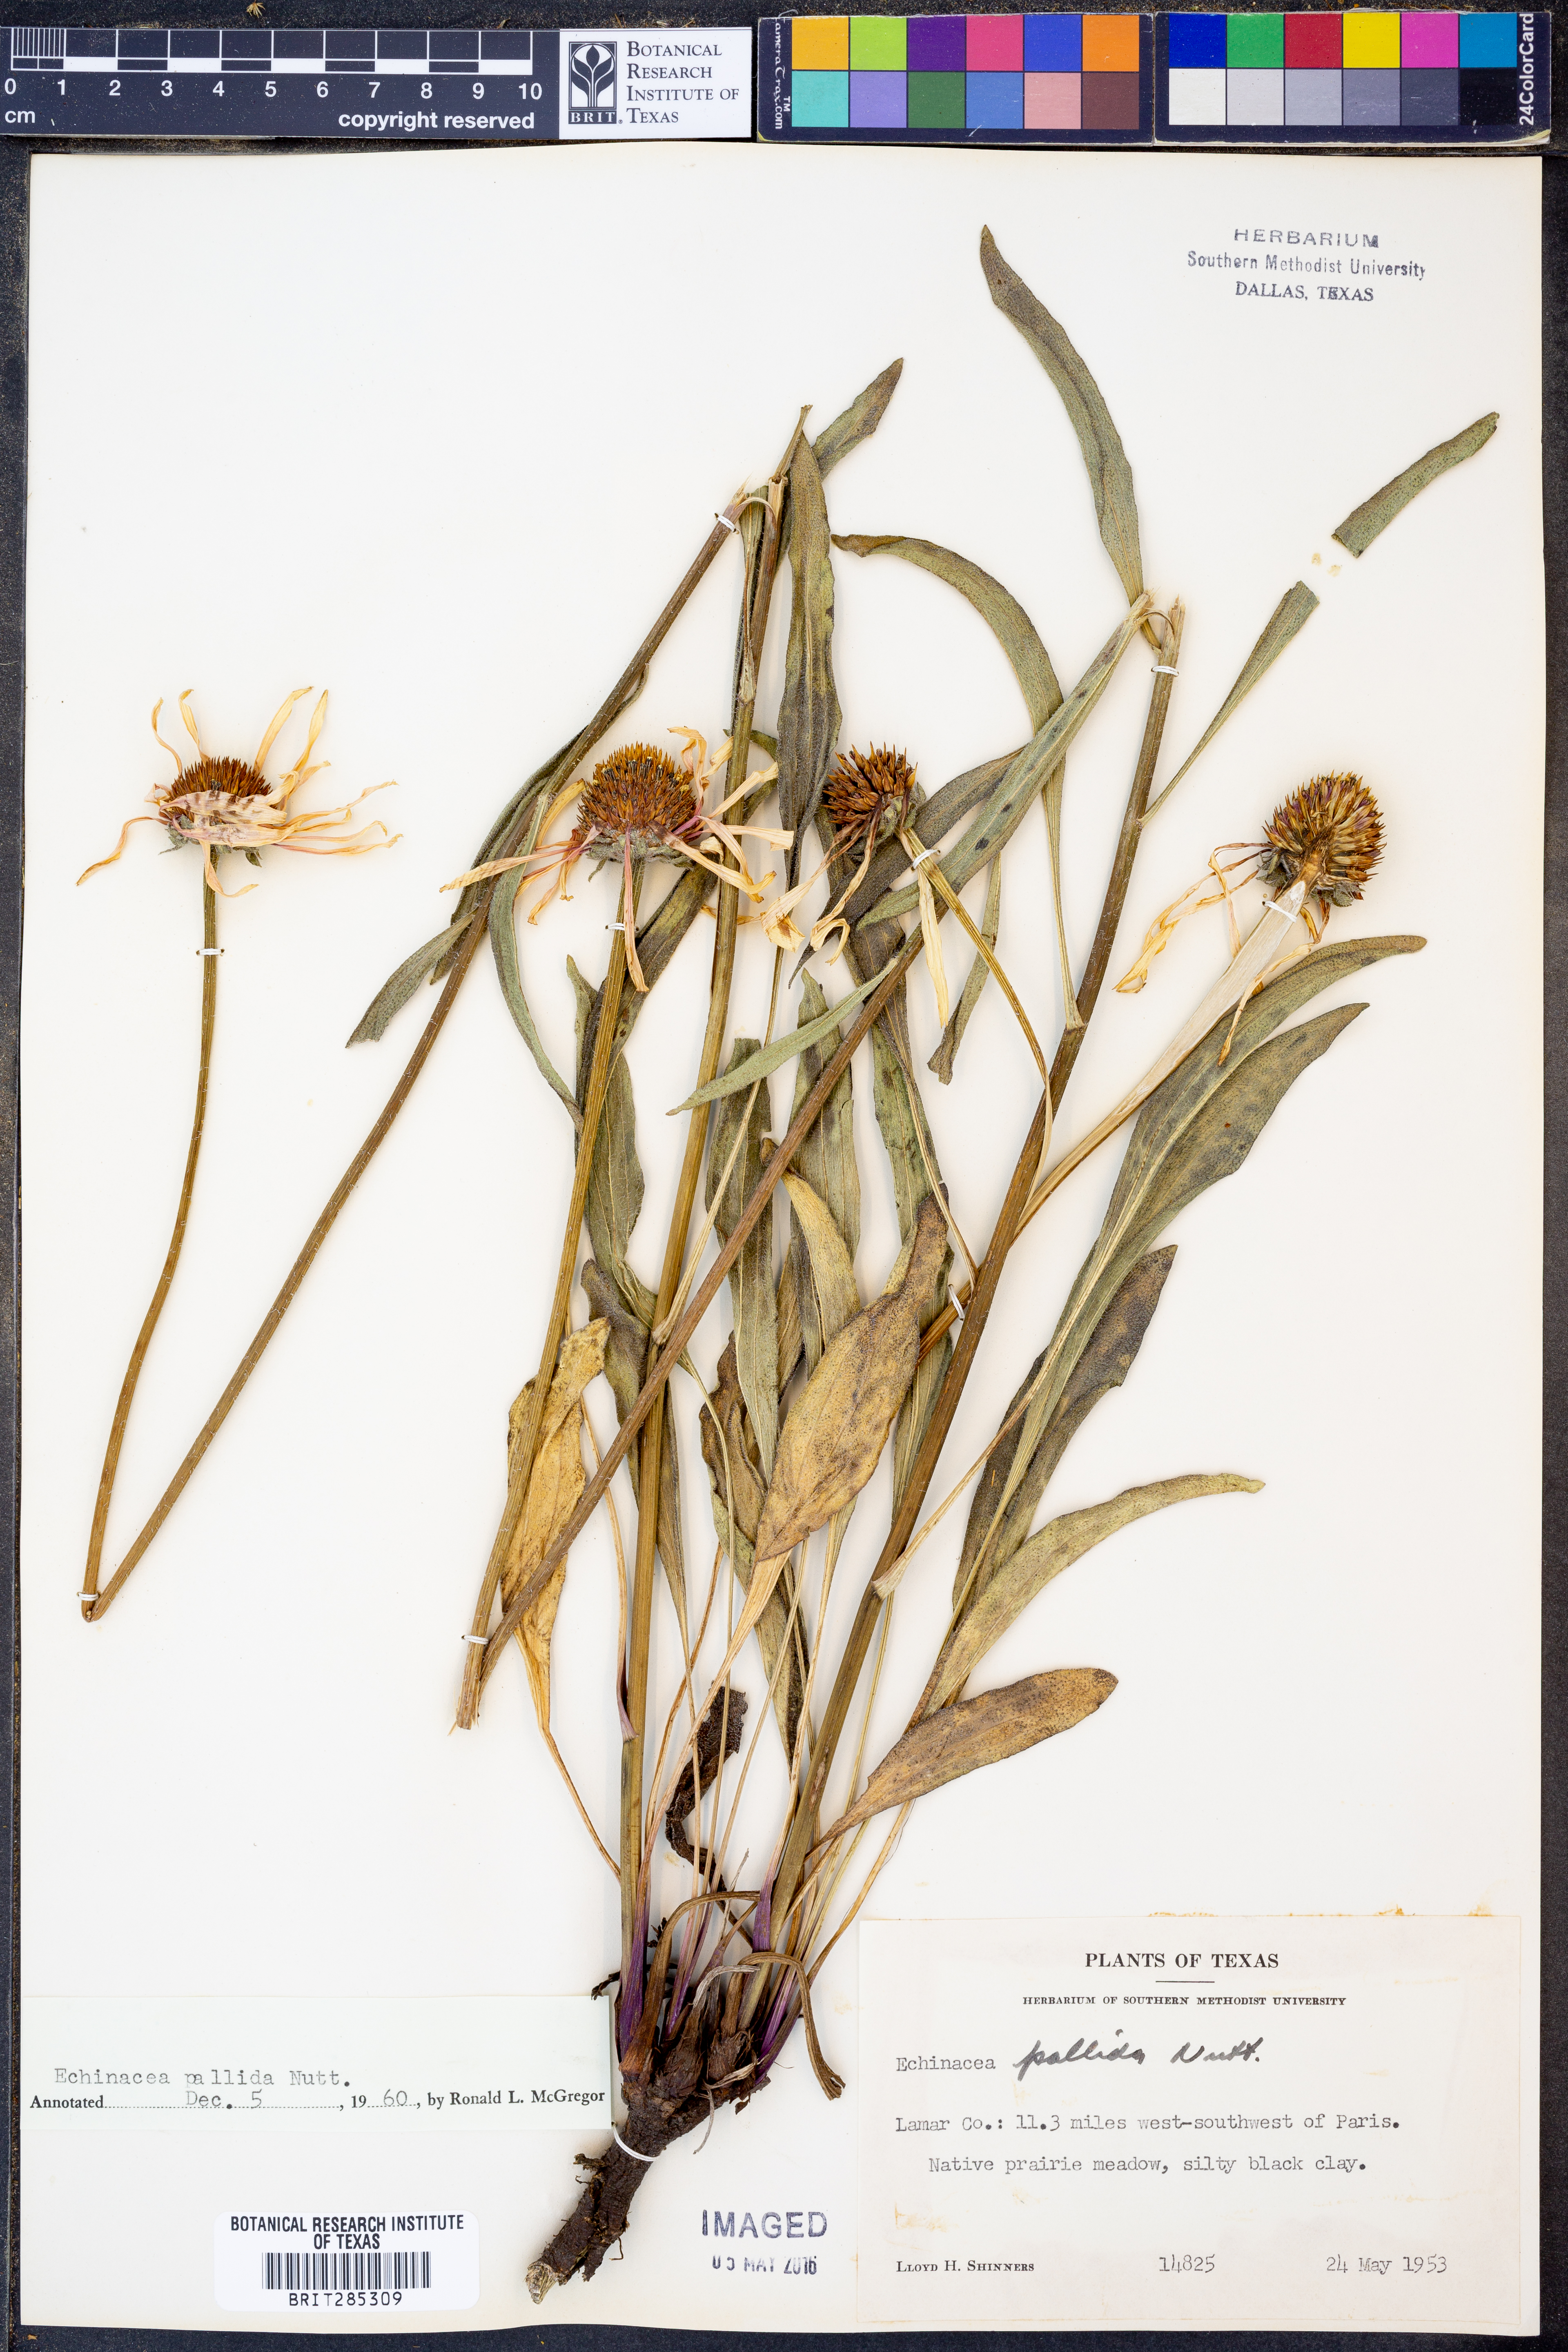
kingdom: Plantae
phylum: Tracheophyta
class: Magnoliopsida
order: Asterales
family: Asteraceae
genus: Echinacea
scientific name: Echinacea pallida
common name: Pale echinacea
